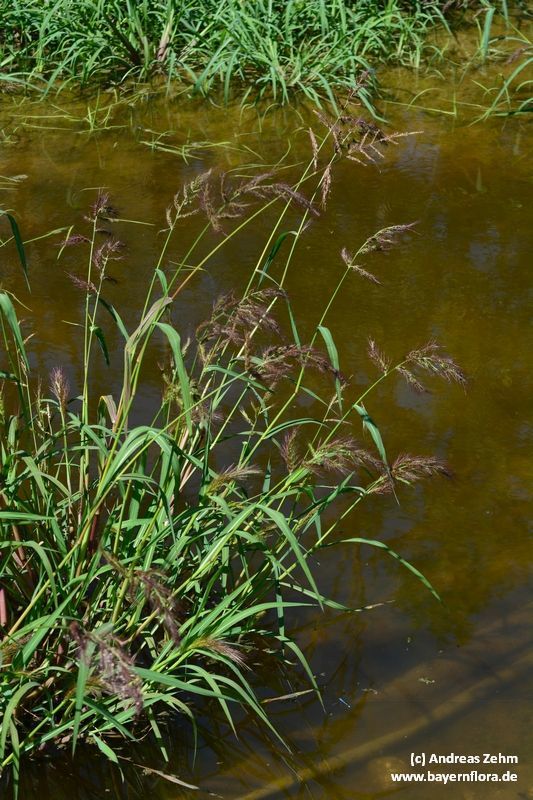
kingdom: Plantae
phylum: Tracheophyta
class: Liliopsida
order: Poales
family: Poaceae
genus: Echinochloa
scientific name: Echinochloa crus-galli
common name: Cockspur
